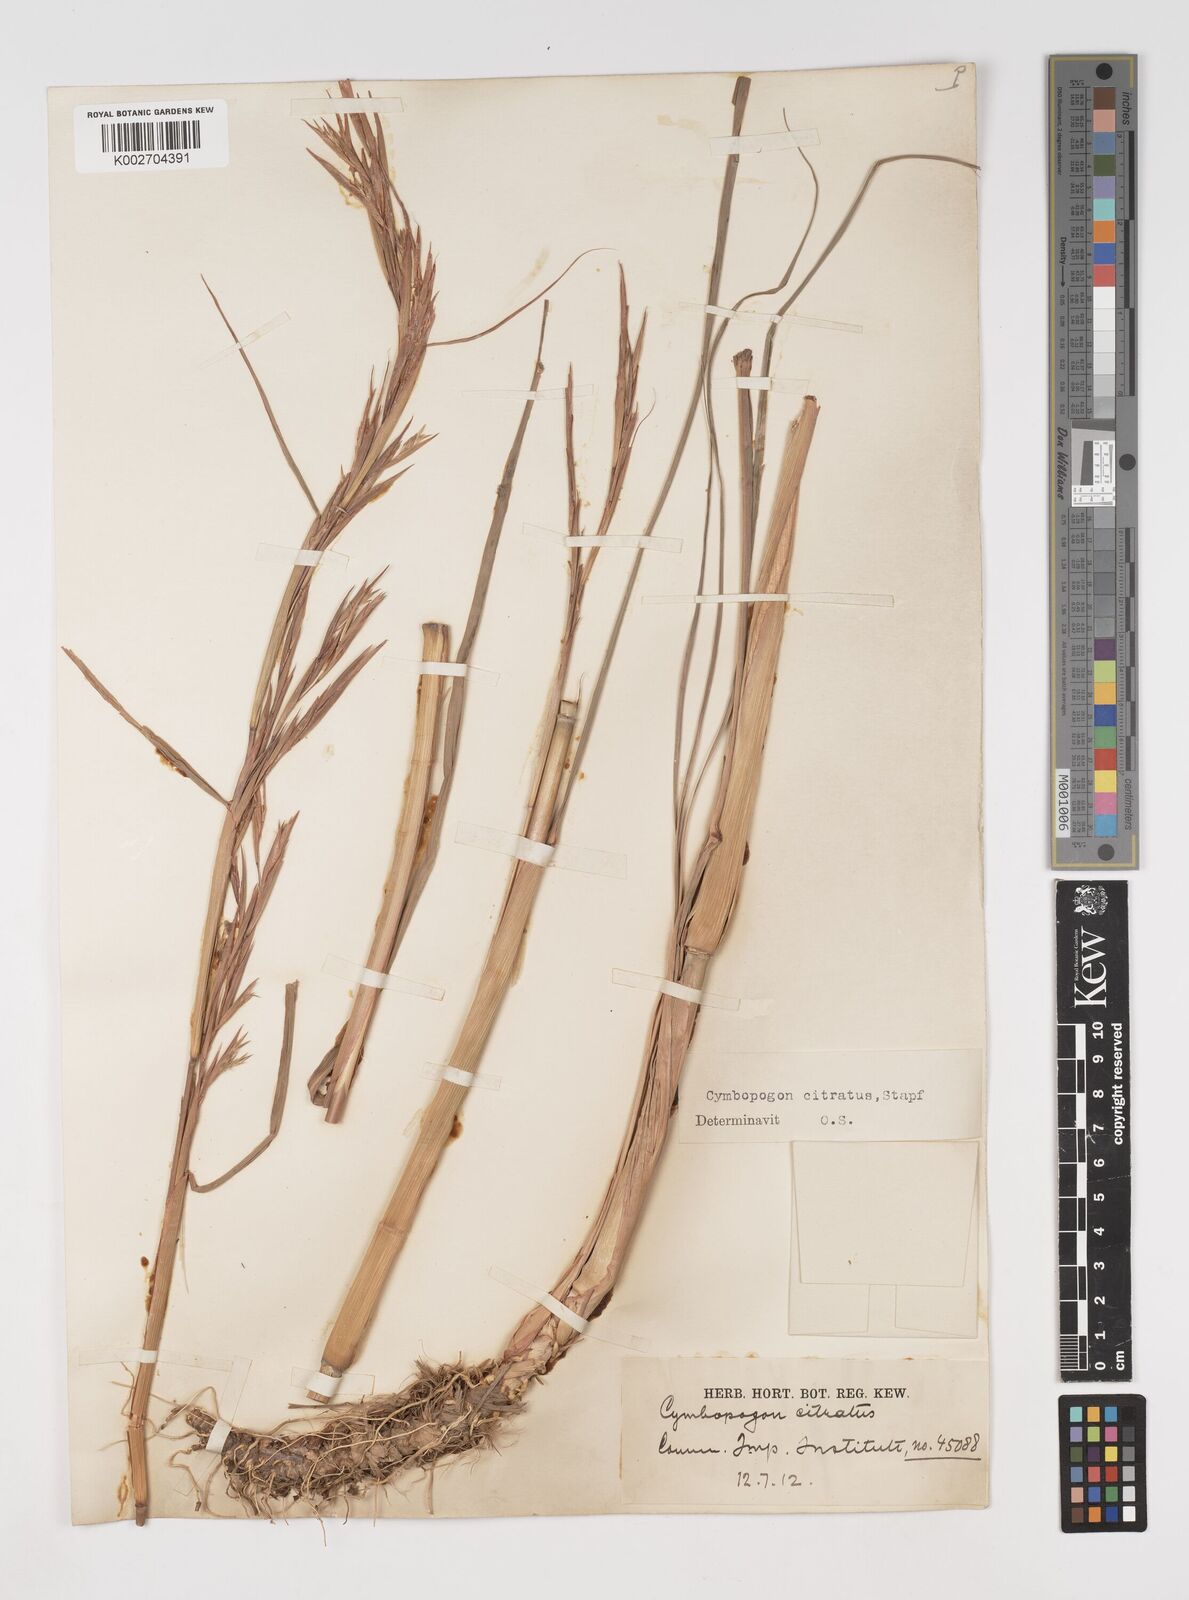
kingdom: Plantae
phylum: Tracheophyta
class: Liliopsida
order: Poales
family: Poaceae
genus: Cymbopogon
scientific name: Cymbopogon citratus
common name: Lemon grass
